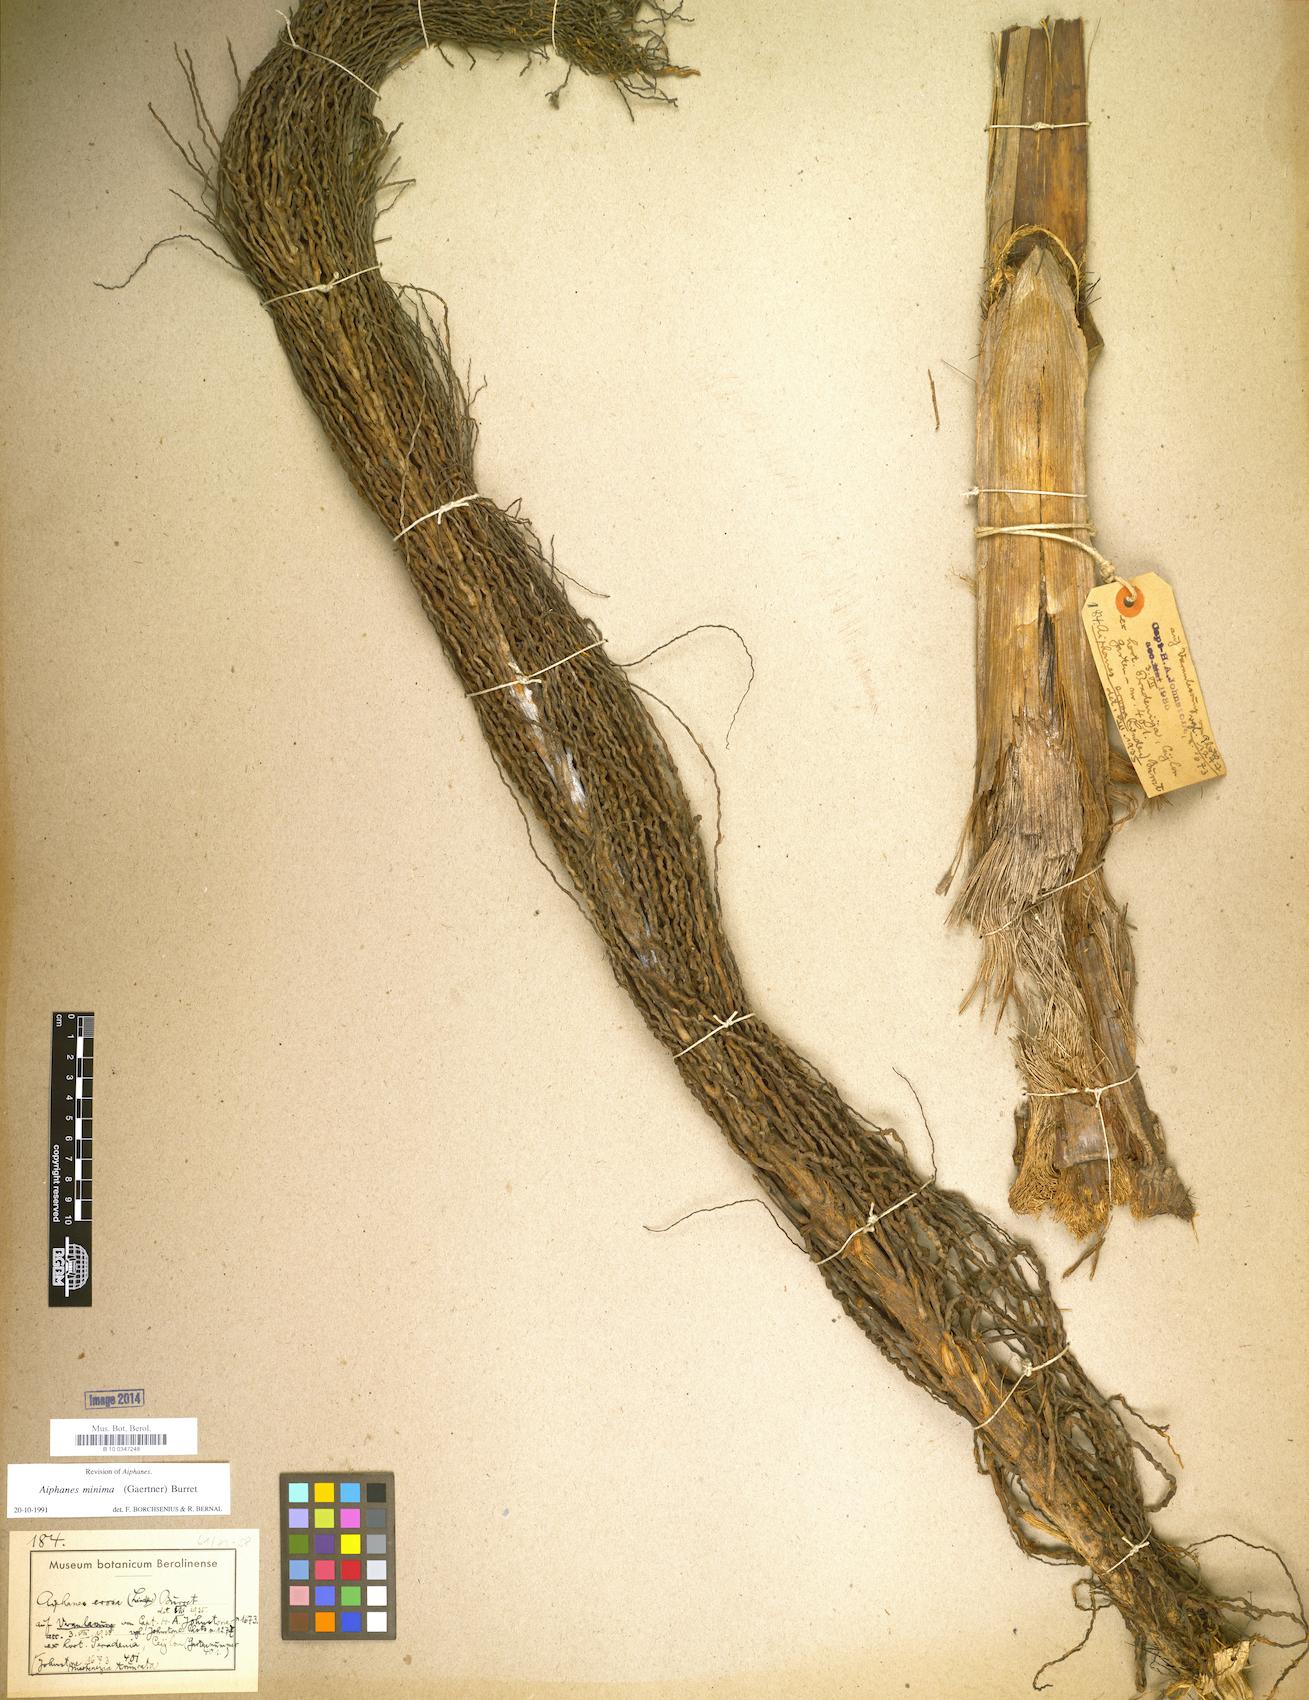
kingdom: Plantae
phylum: Tracheophyta
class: Liliopsida
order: Arecales
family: Arecaceae
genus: Aiphanes
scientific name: Aiphanes minima
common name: Grigri
